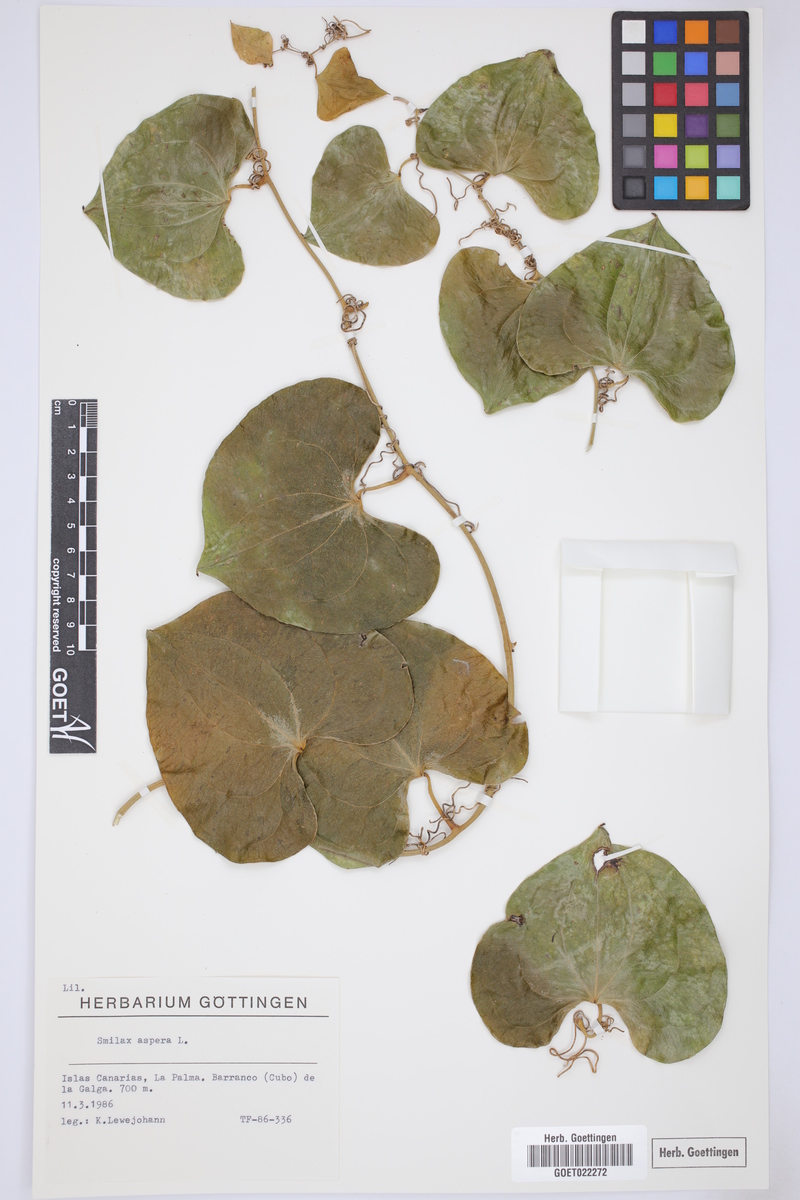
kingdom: Plantae
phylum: Tracheophyta
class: Liliopsida
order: Liliales
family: Smilacaceae
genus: Smilax
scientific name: Smilax aspera
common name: Common smilax
